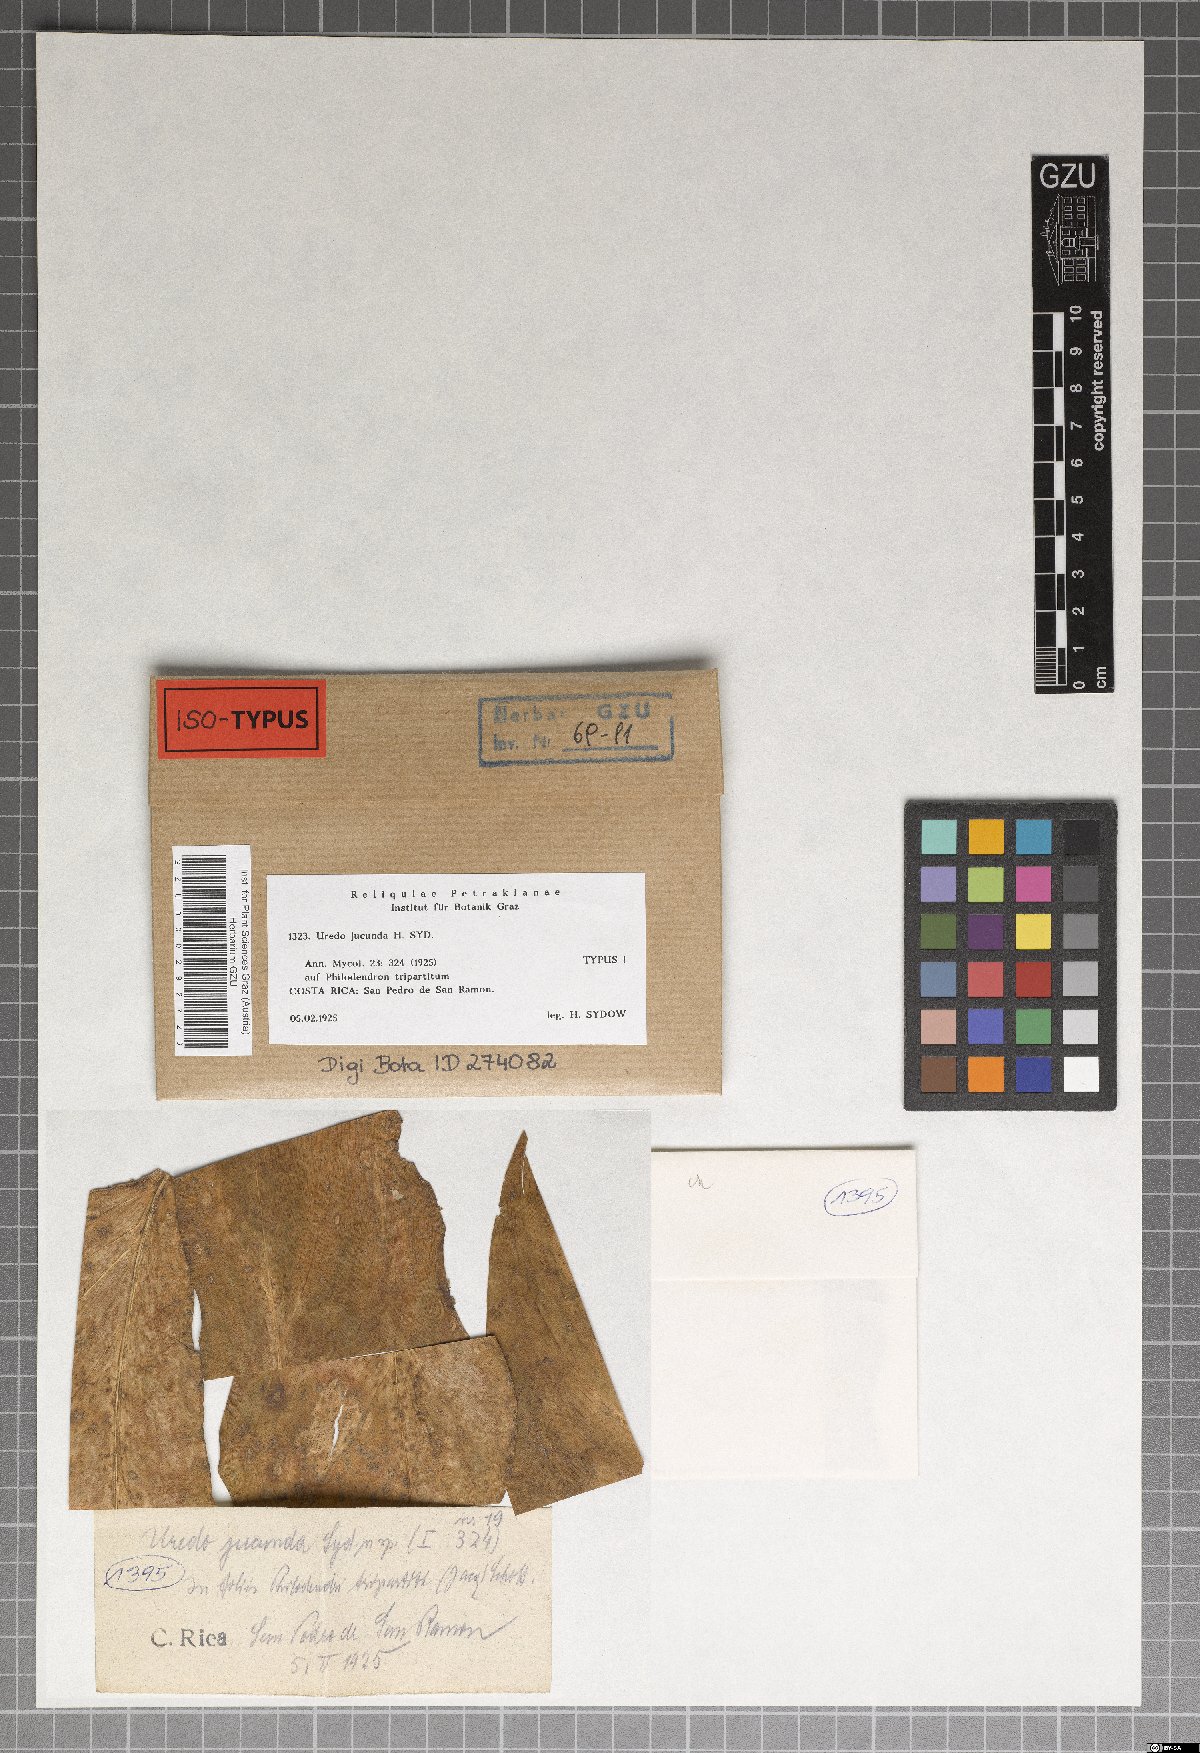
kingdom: Fungi
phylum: Basidiomycota
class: Pucciniomycetes
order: Pucciniales
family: Pucciniaceae
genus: Uredo
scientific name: Uredo jucunda
